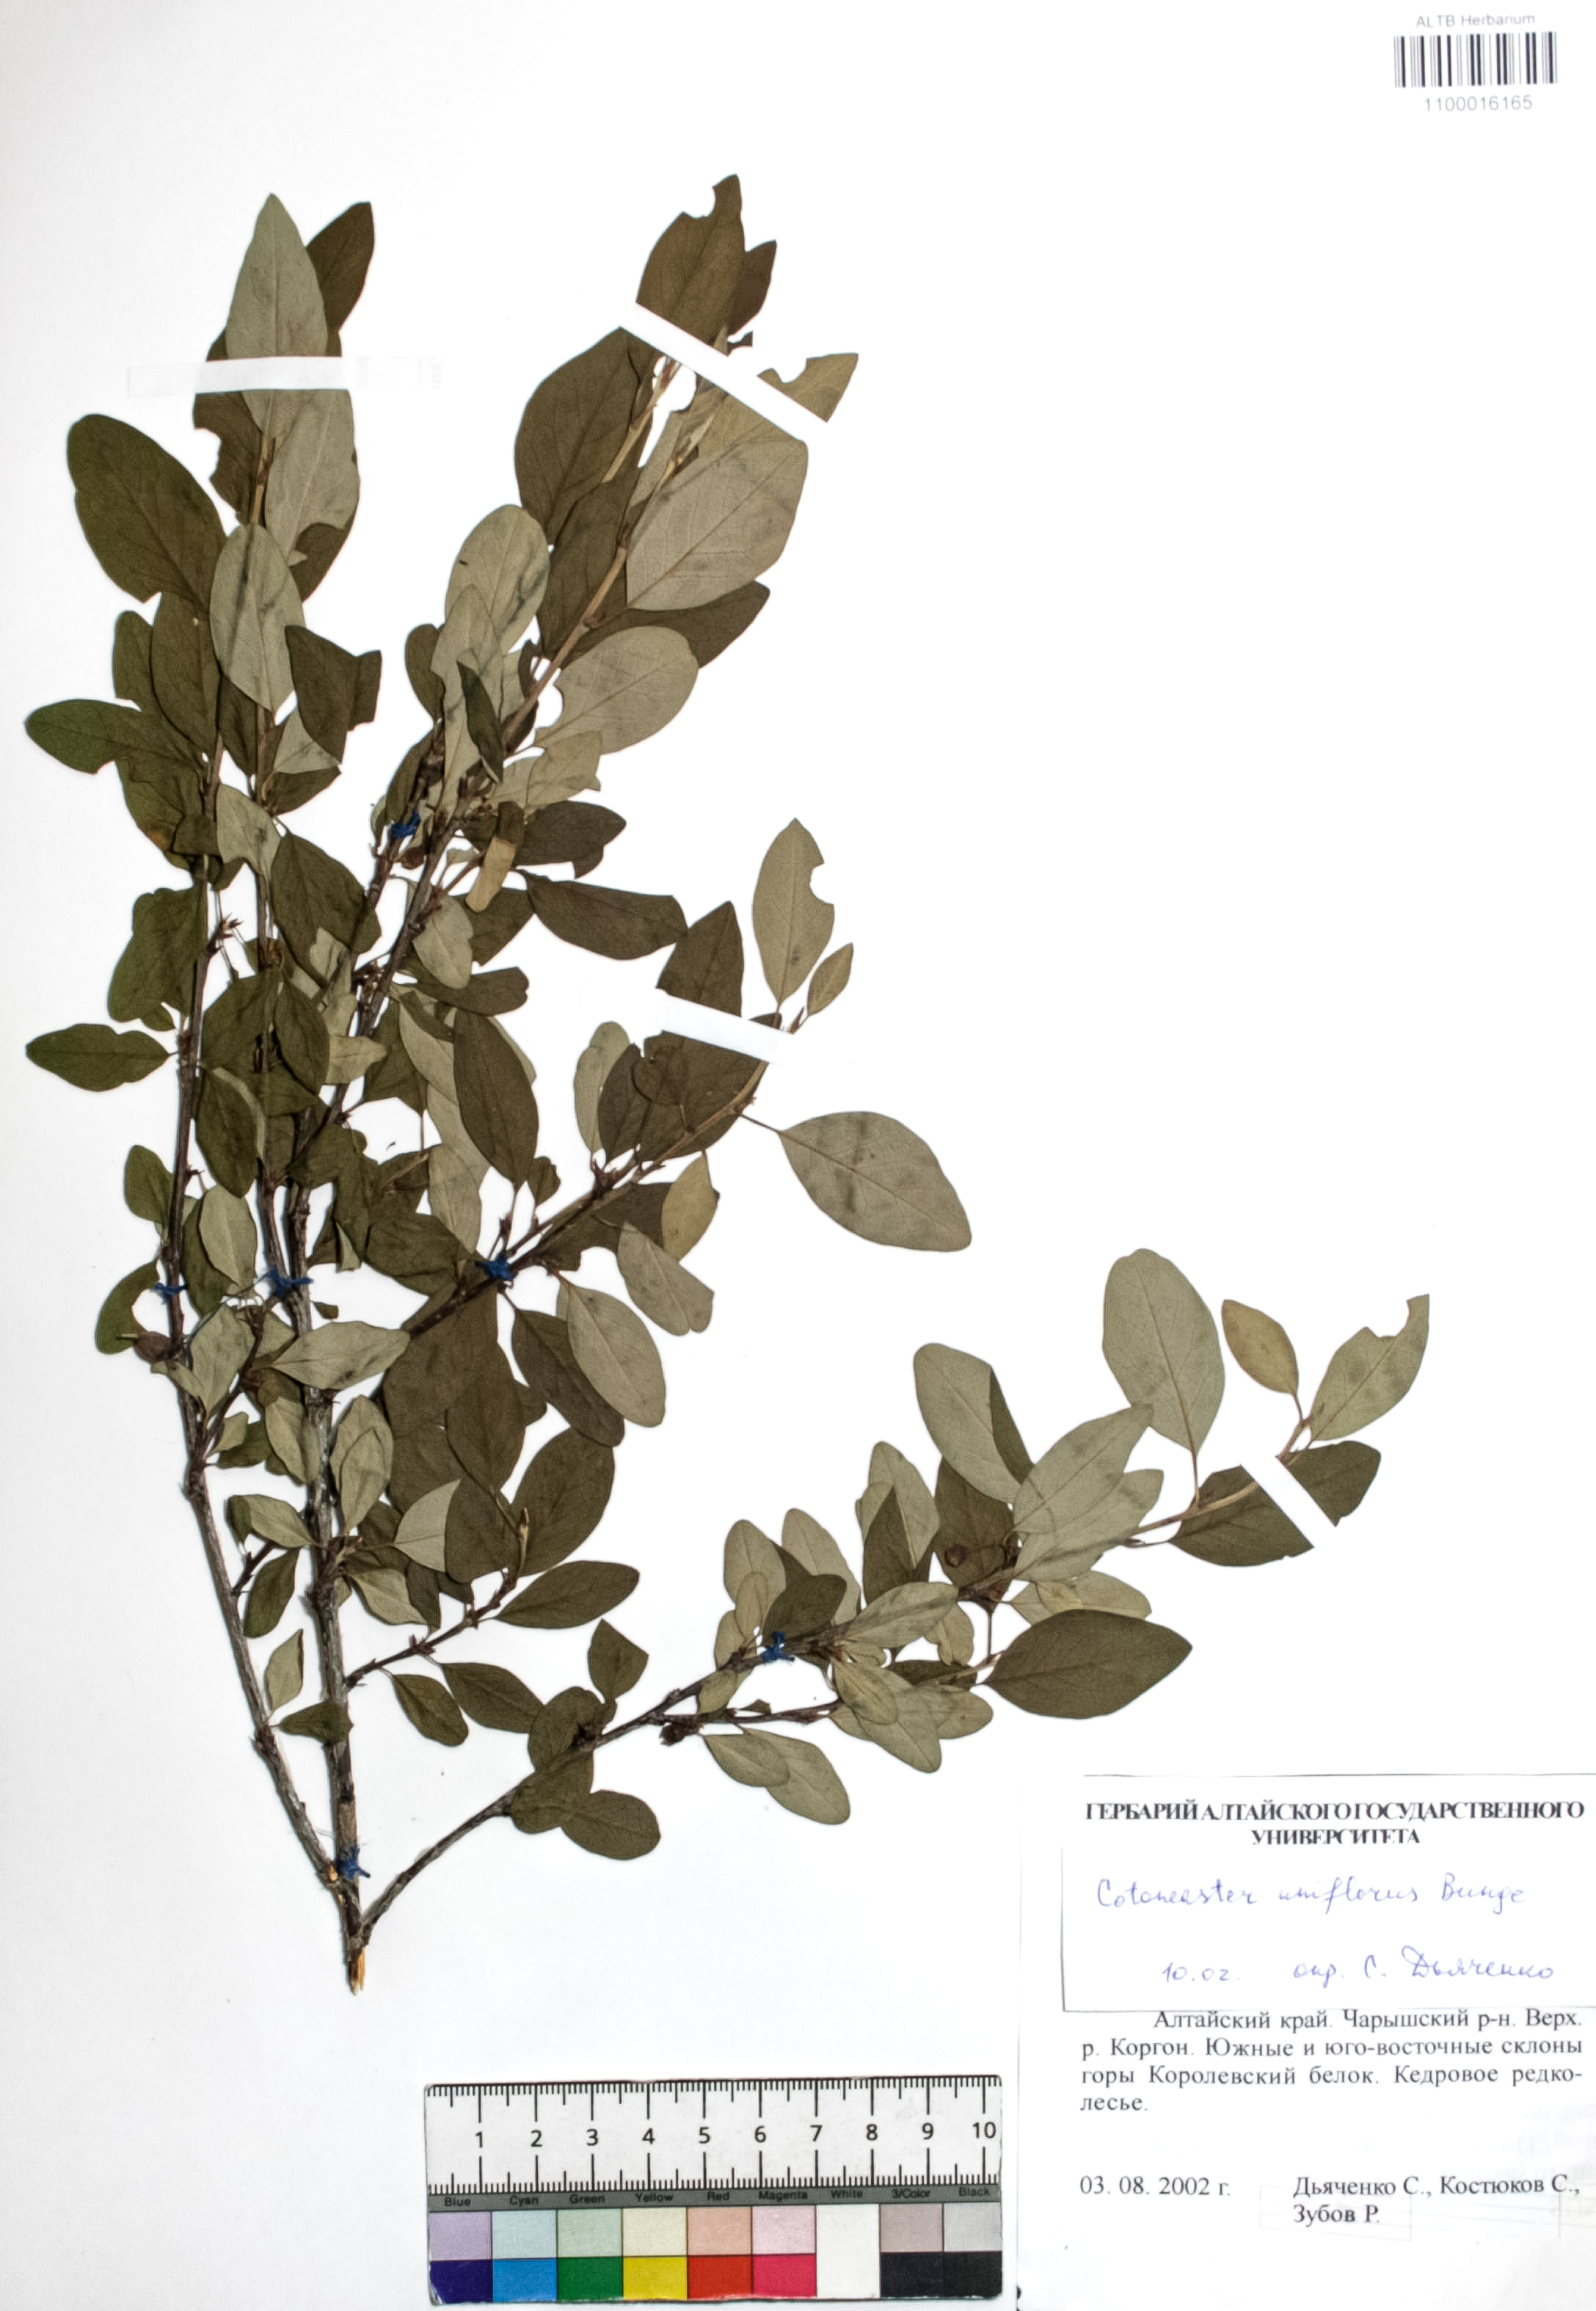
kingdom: Plantae
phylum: Tracheophyta
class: Magnoliopsida
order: Rosales
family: Rosaceae
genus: Cotoneaster
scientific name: Cotoneaster uniflorus
